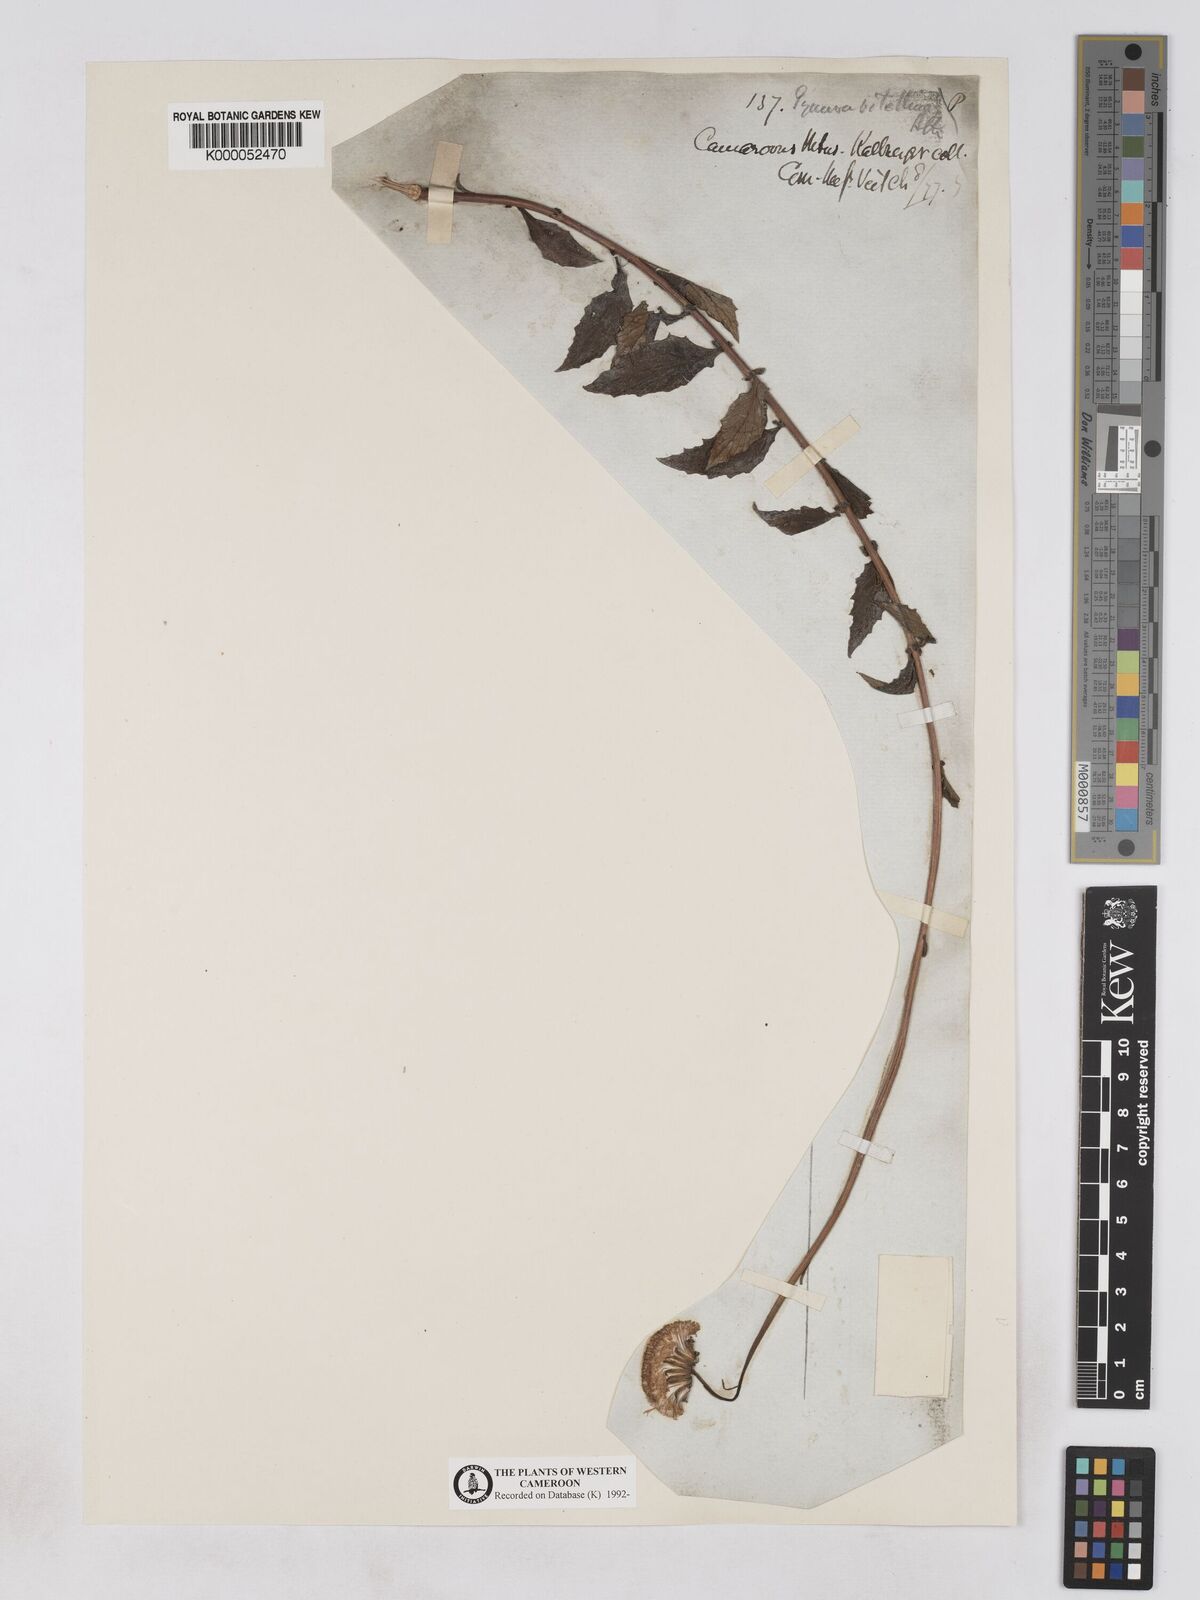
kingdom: Plantae
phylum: Tracheophyta
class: Magnoliopsida
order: Asterales
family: Asteraceae
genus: Crassocephalum
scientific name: Crassocephalum
